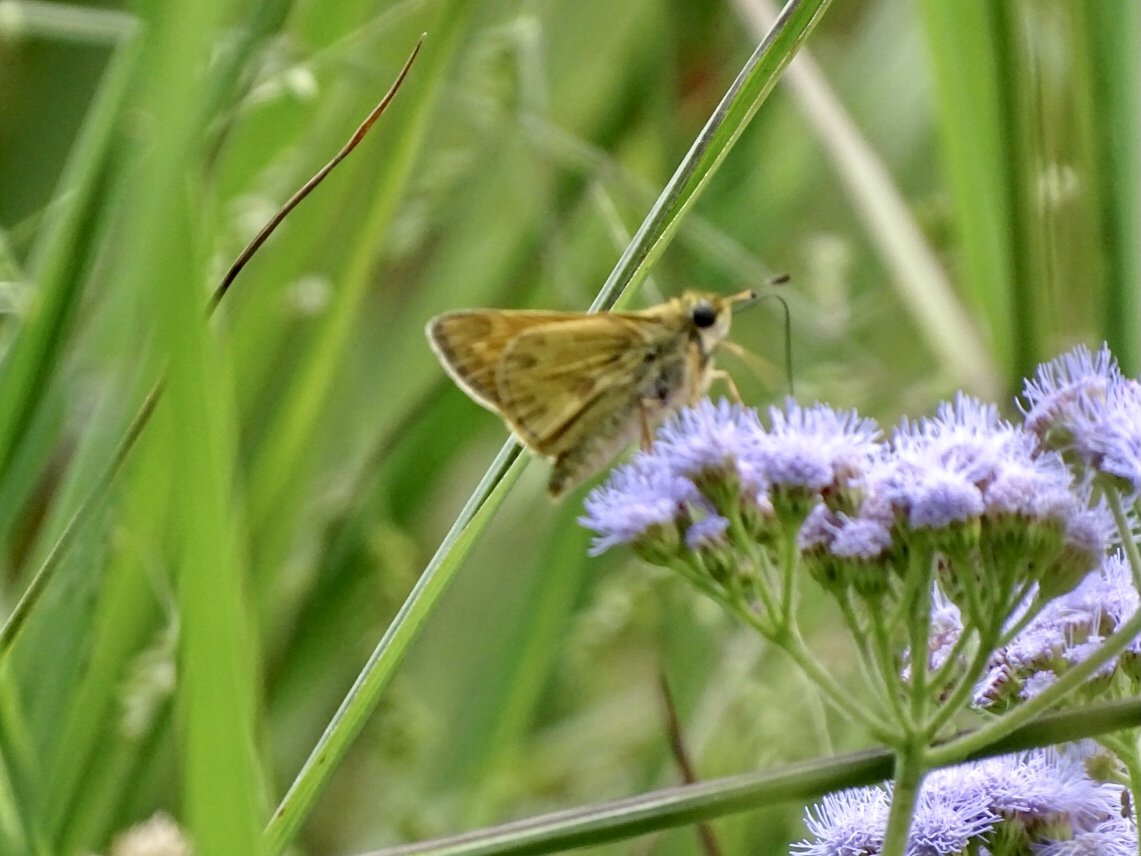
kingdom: Animalia
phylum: Arthropoda
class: Insecta
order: Lepidoptera
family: Hesperiidae
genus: Atalopedes
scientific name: Atalopedes campestris
